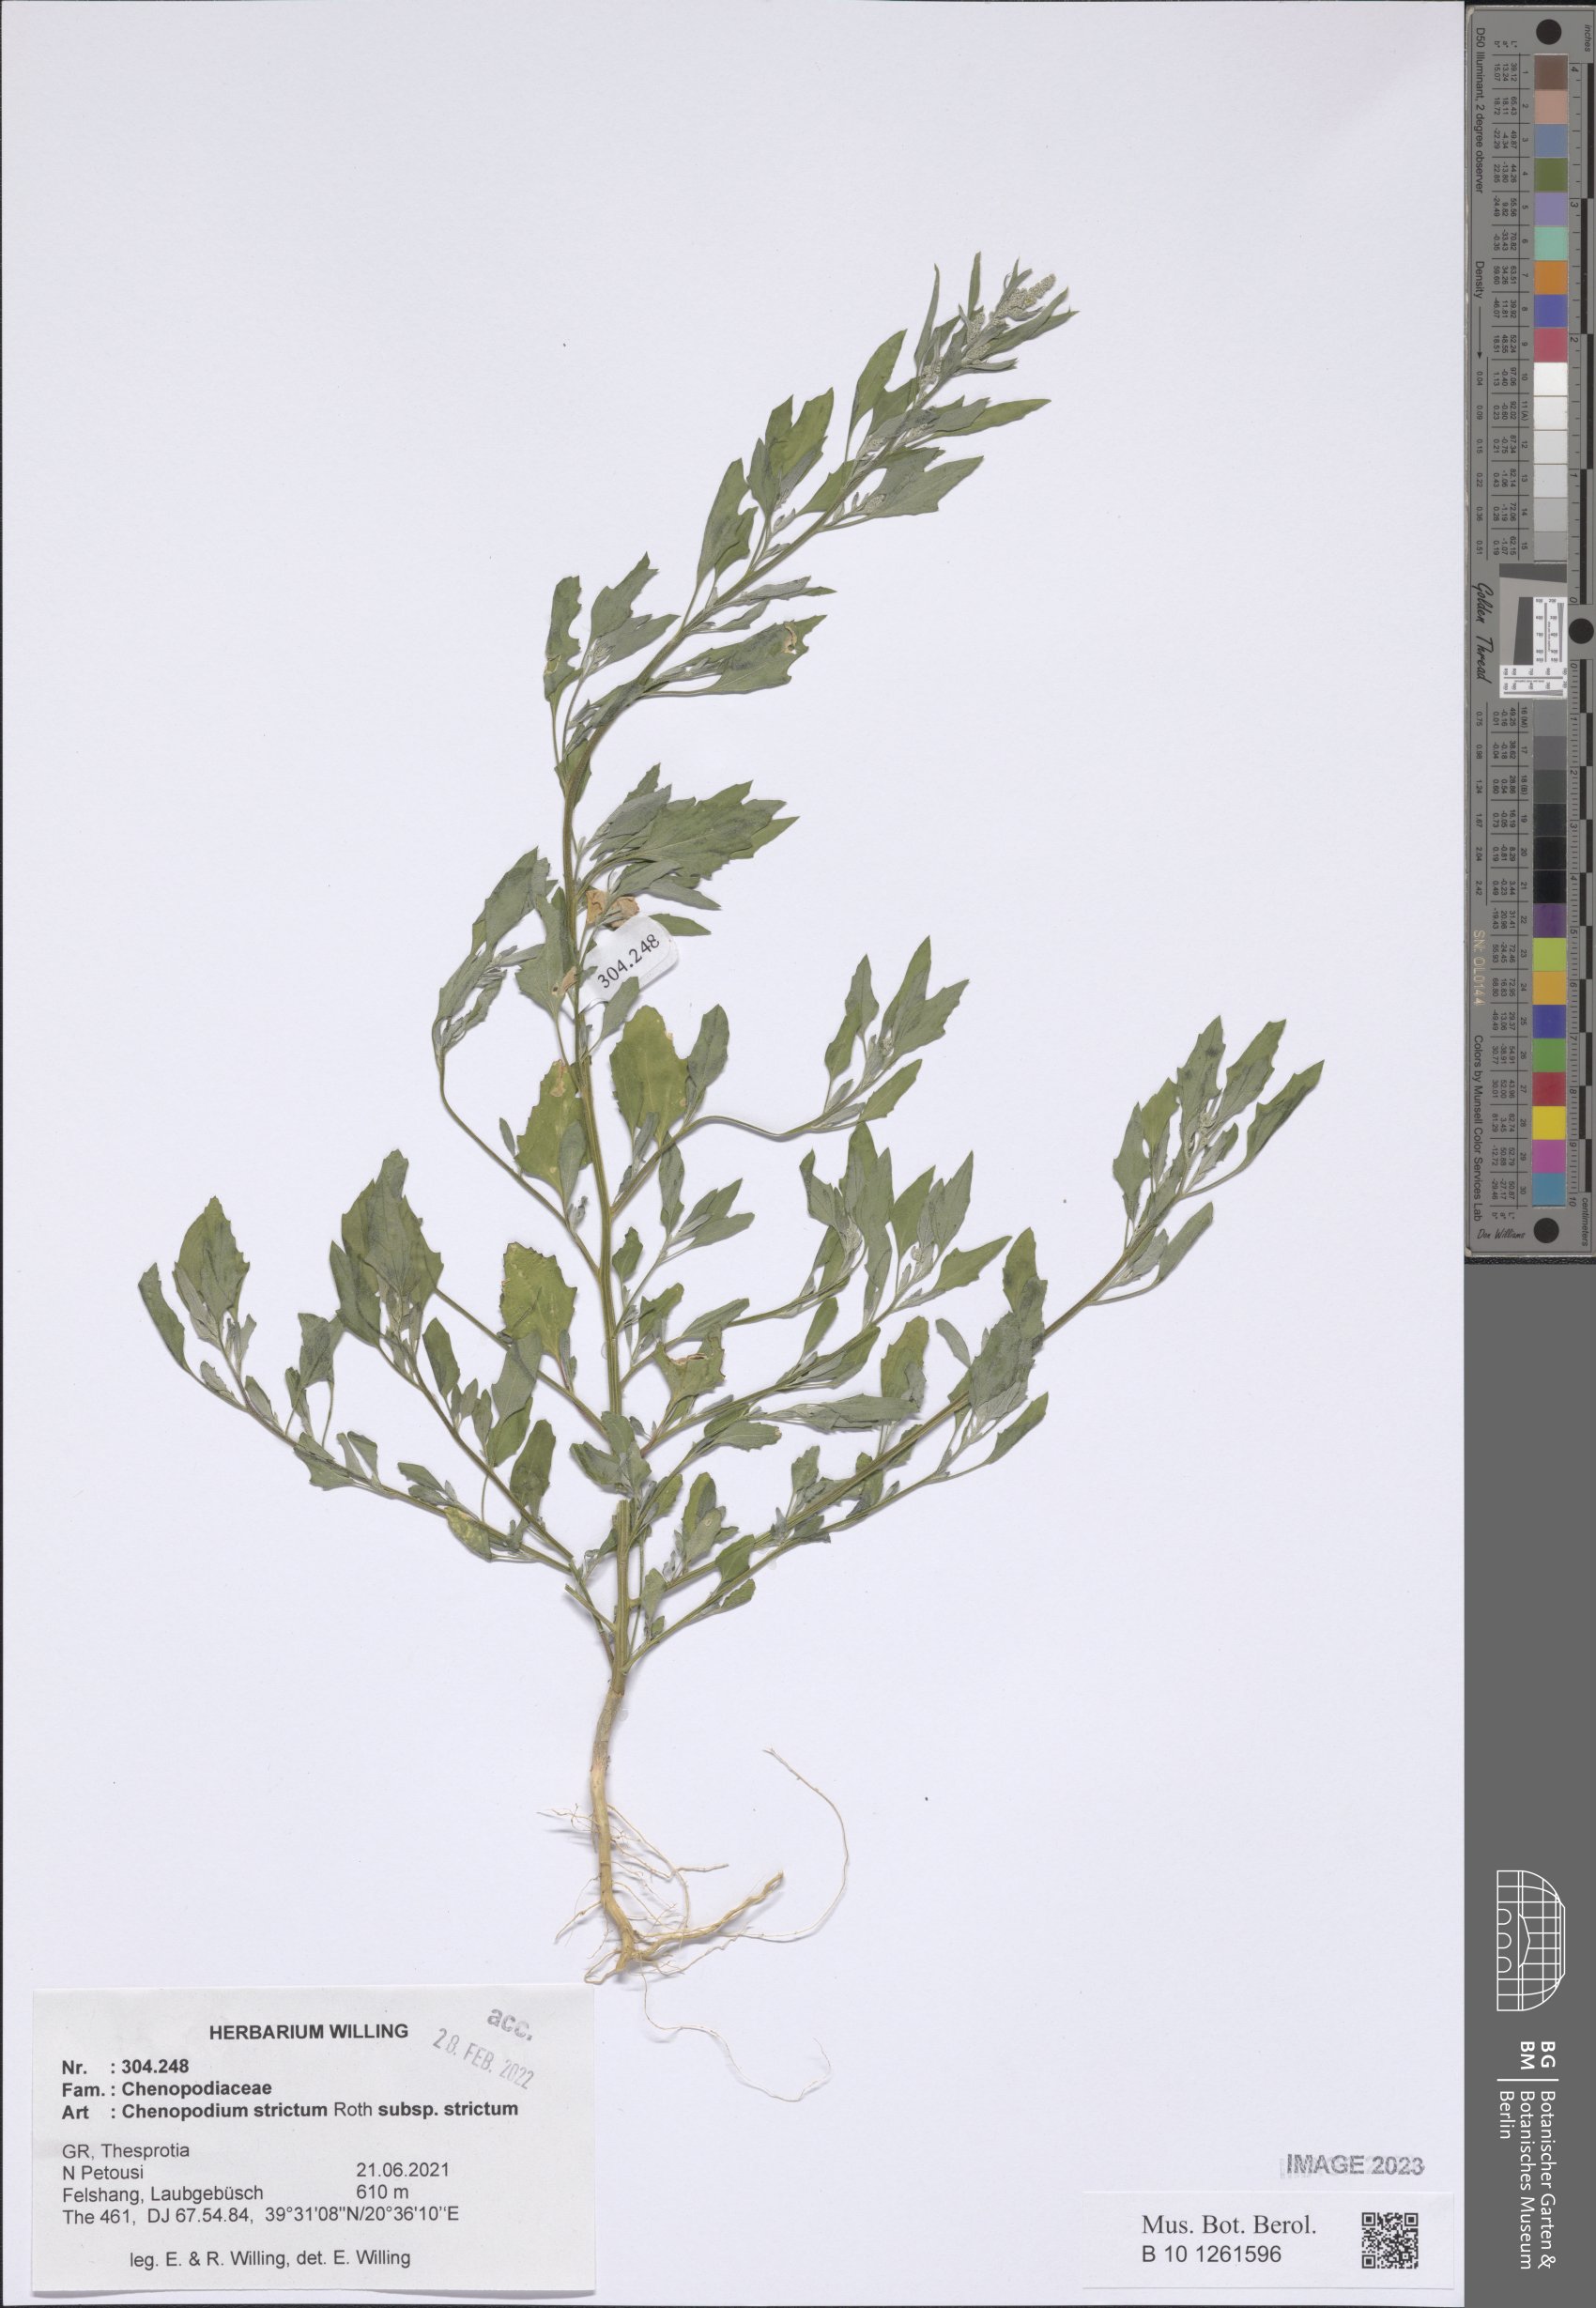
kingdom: Plantae
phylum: Tracheophyta
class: Magnoliopsida
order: Caryophyllales
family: Amaranthaceae
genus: Chenopodium
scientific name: Chenopodium album
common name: Fat-hen
